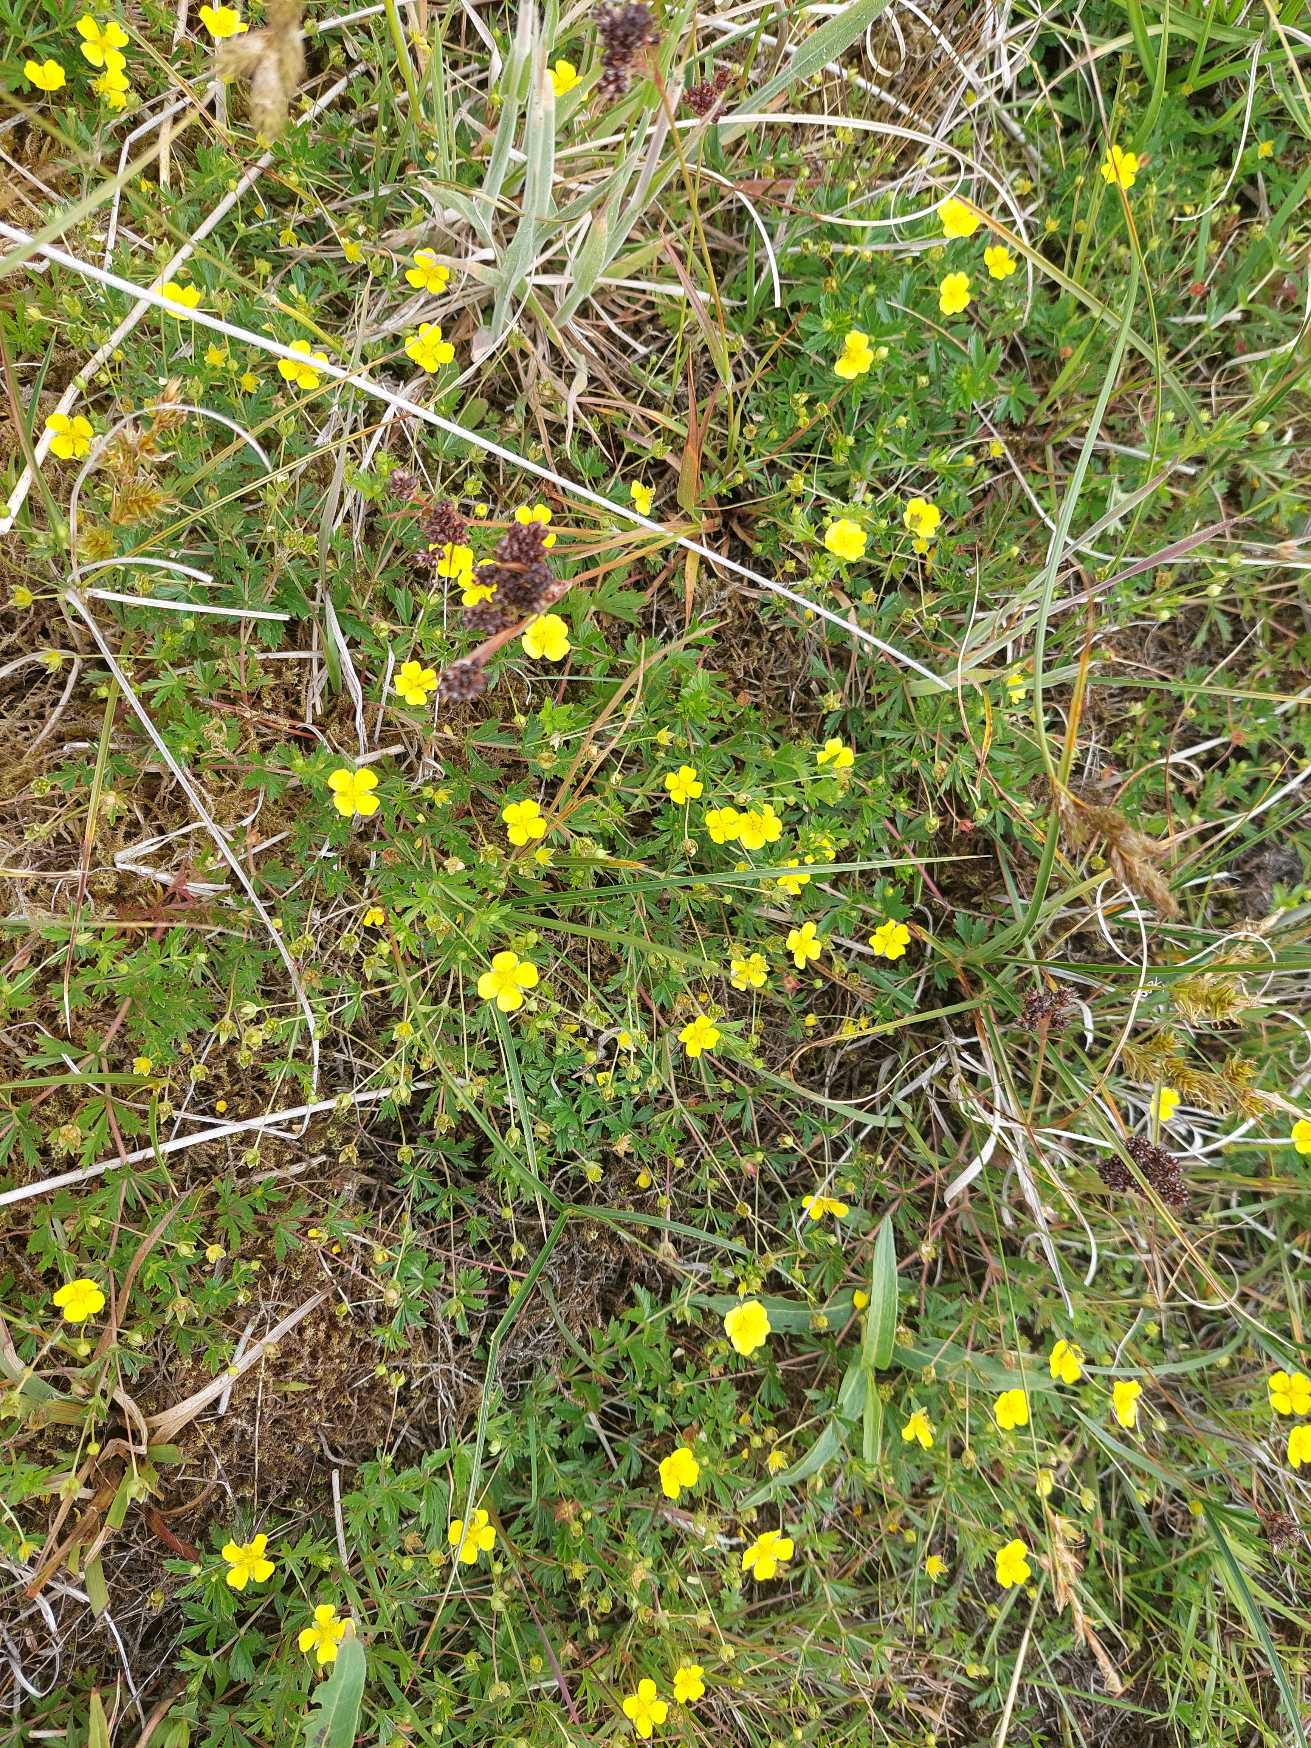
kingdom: Plantae
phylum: Tracheophyta
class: Magnoliopsida
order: Rosales
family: Rosaceae
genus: Potentilla
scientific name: Potentilla erecta
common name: Tormentil
